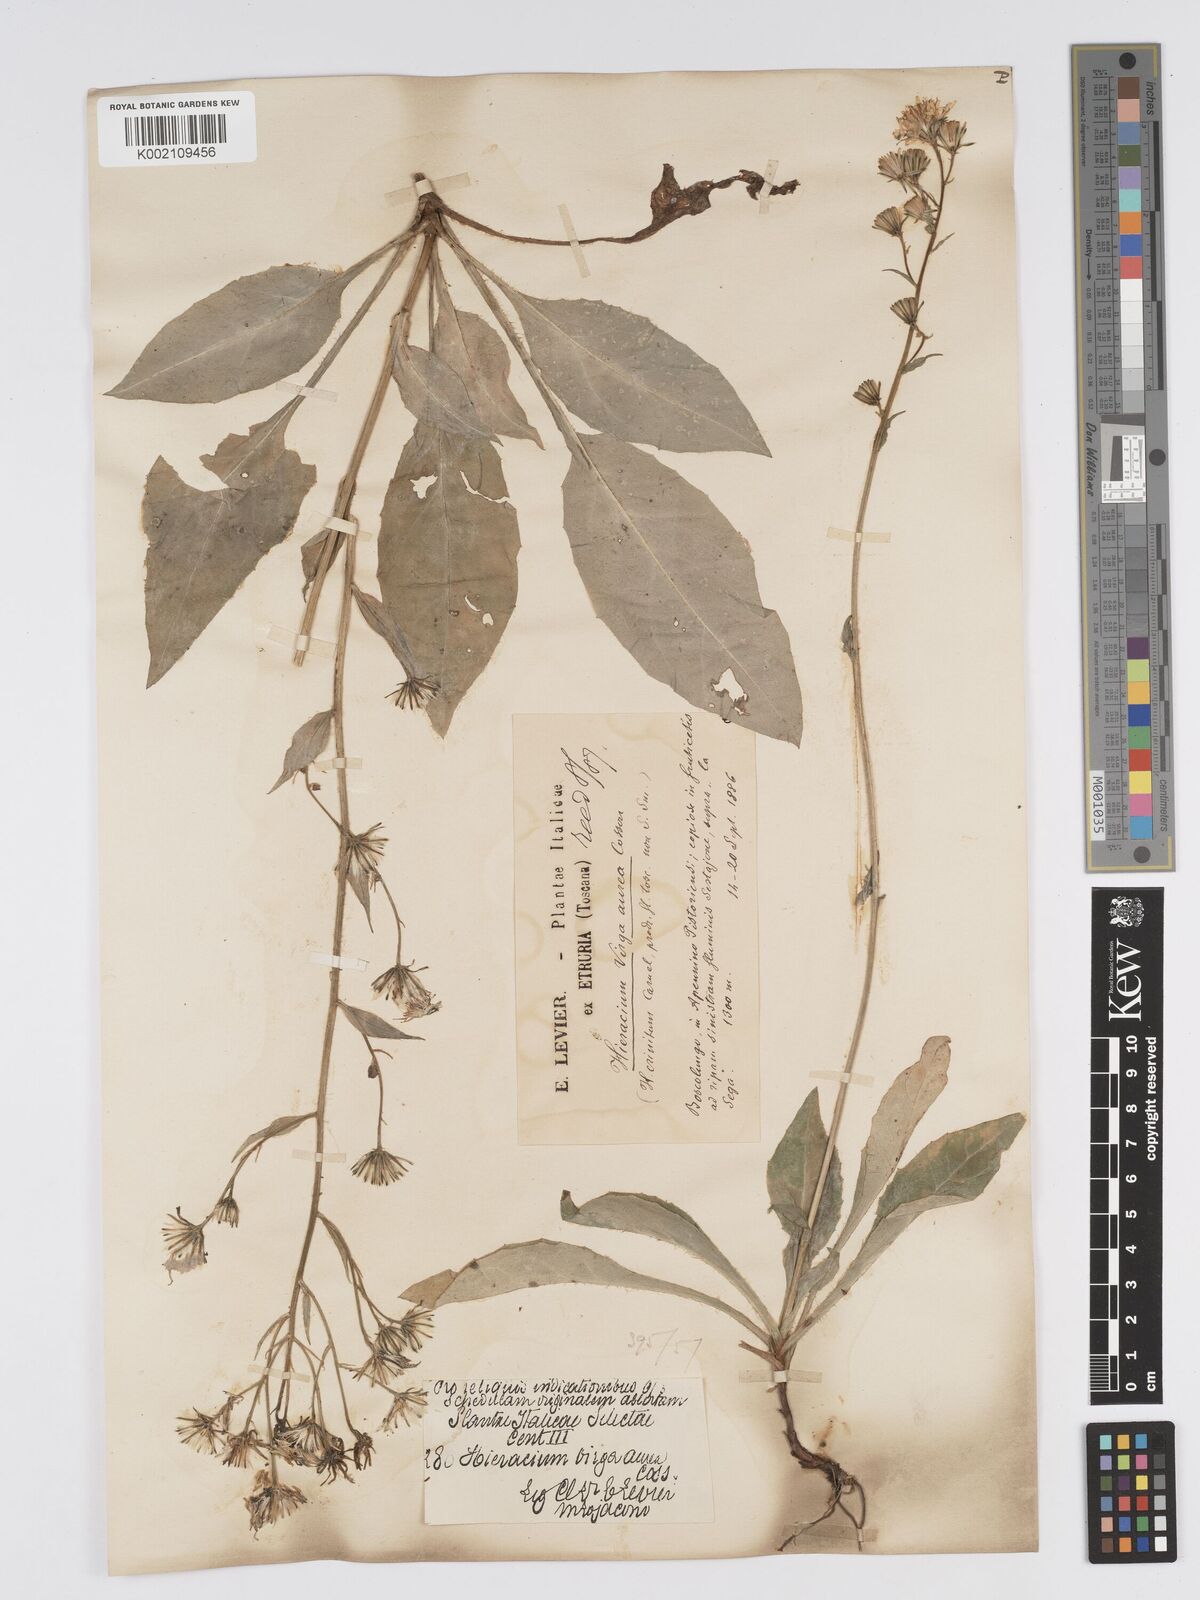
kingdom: Plantae
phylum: Tracheophyta
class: Magnoliopsida
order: Asterales
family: Asteraceae
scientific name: Asteraceae
